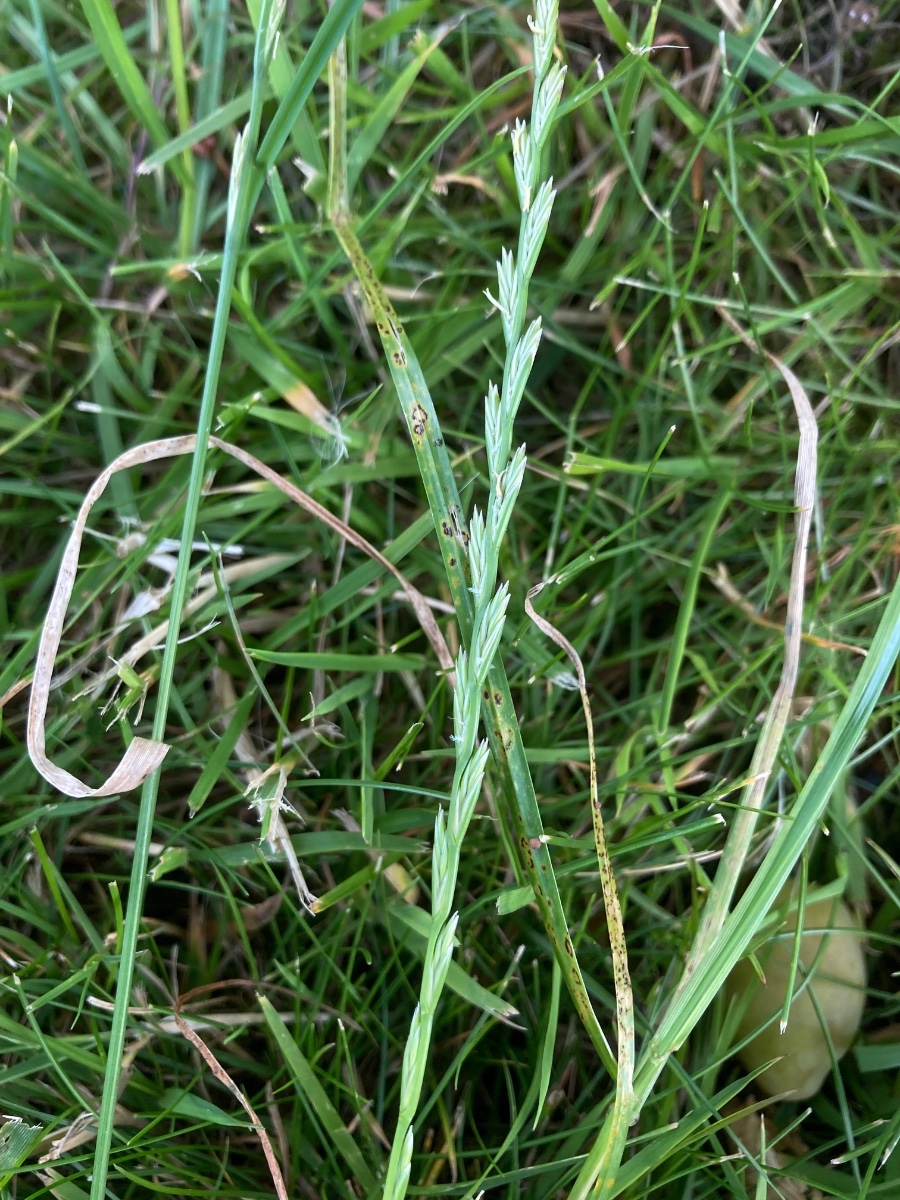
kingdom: Fungi
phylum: Basidiomycota
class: Pucciniomycetes
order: Pucciniales
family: Pucciniaceae
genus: Puccinia
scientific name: Puccinia
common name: tvecellerust
